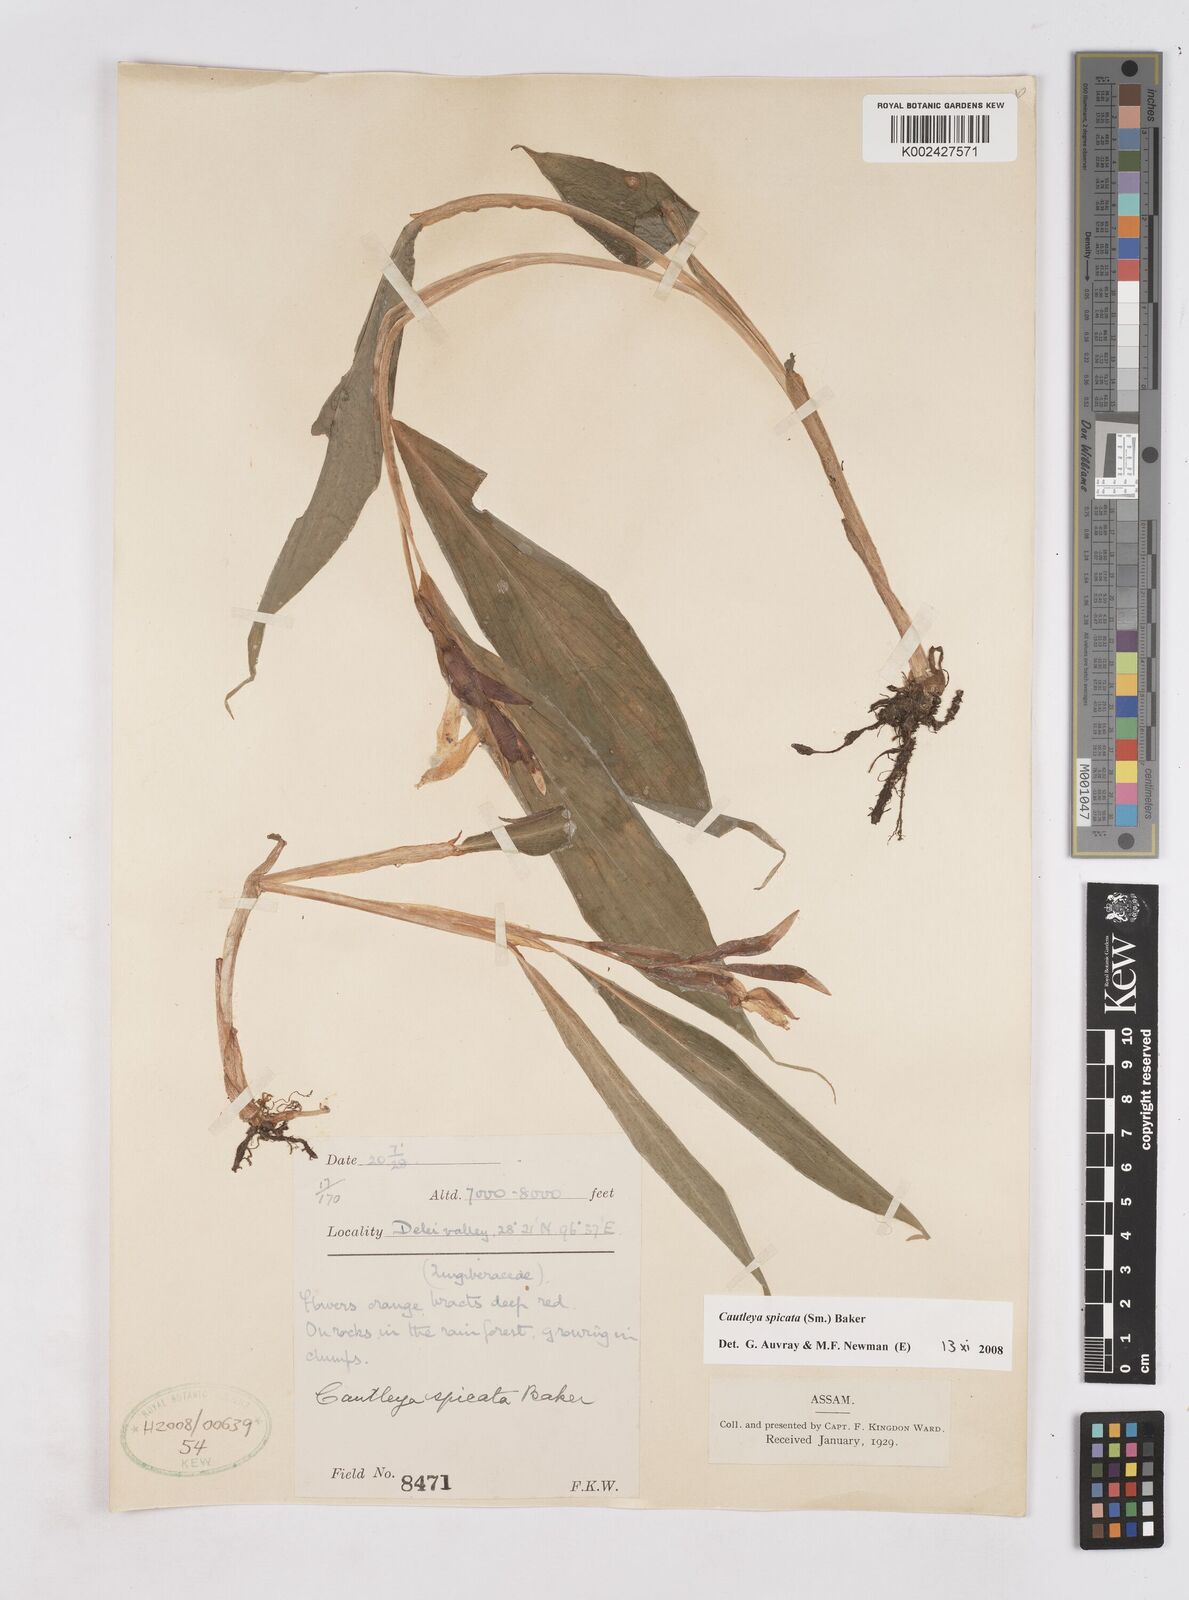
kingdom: Plantae
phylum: Tracheophyta
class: Liliopsida
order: Zingiberales
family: Zingiberaceae
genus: Cautleya
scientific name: Cautleya
